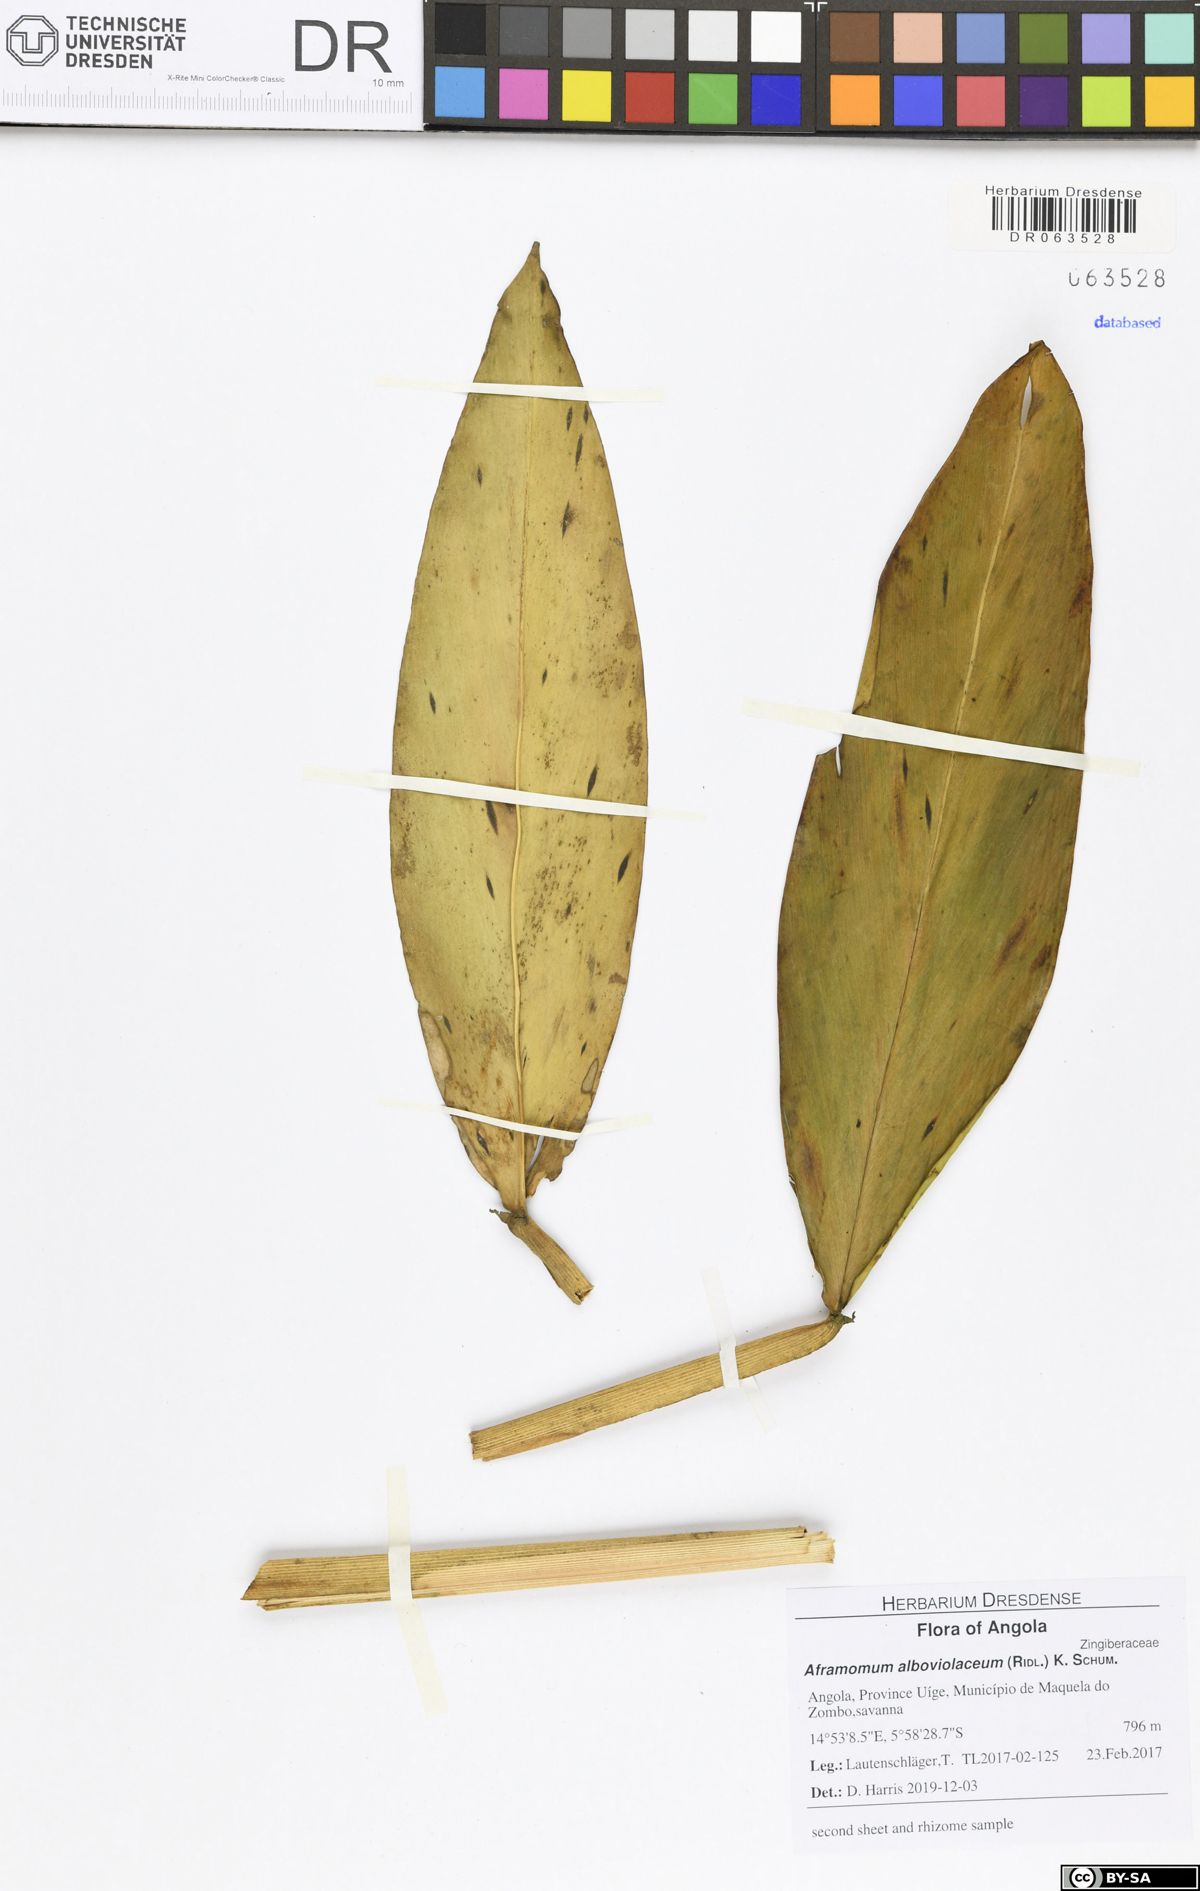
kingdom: Plantae
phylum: Tracheophyta
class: Liliopsida
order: Zingiberales
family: Zingiberaceae
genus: Aframomum
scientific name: Aframomum alboviolaceum
